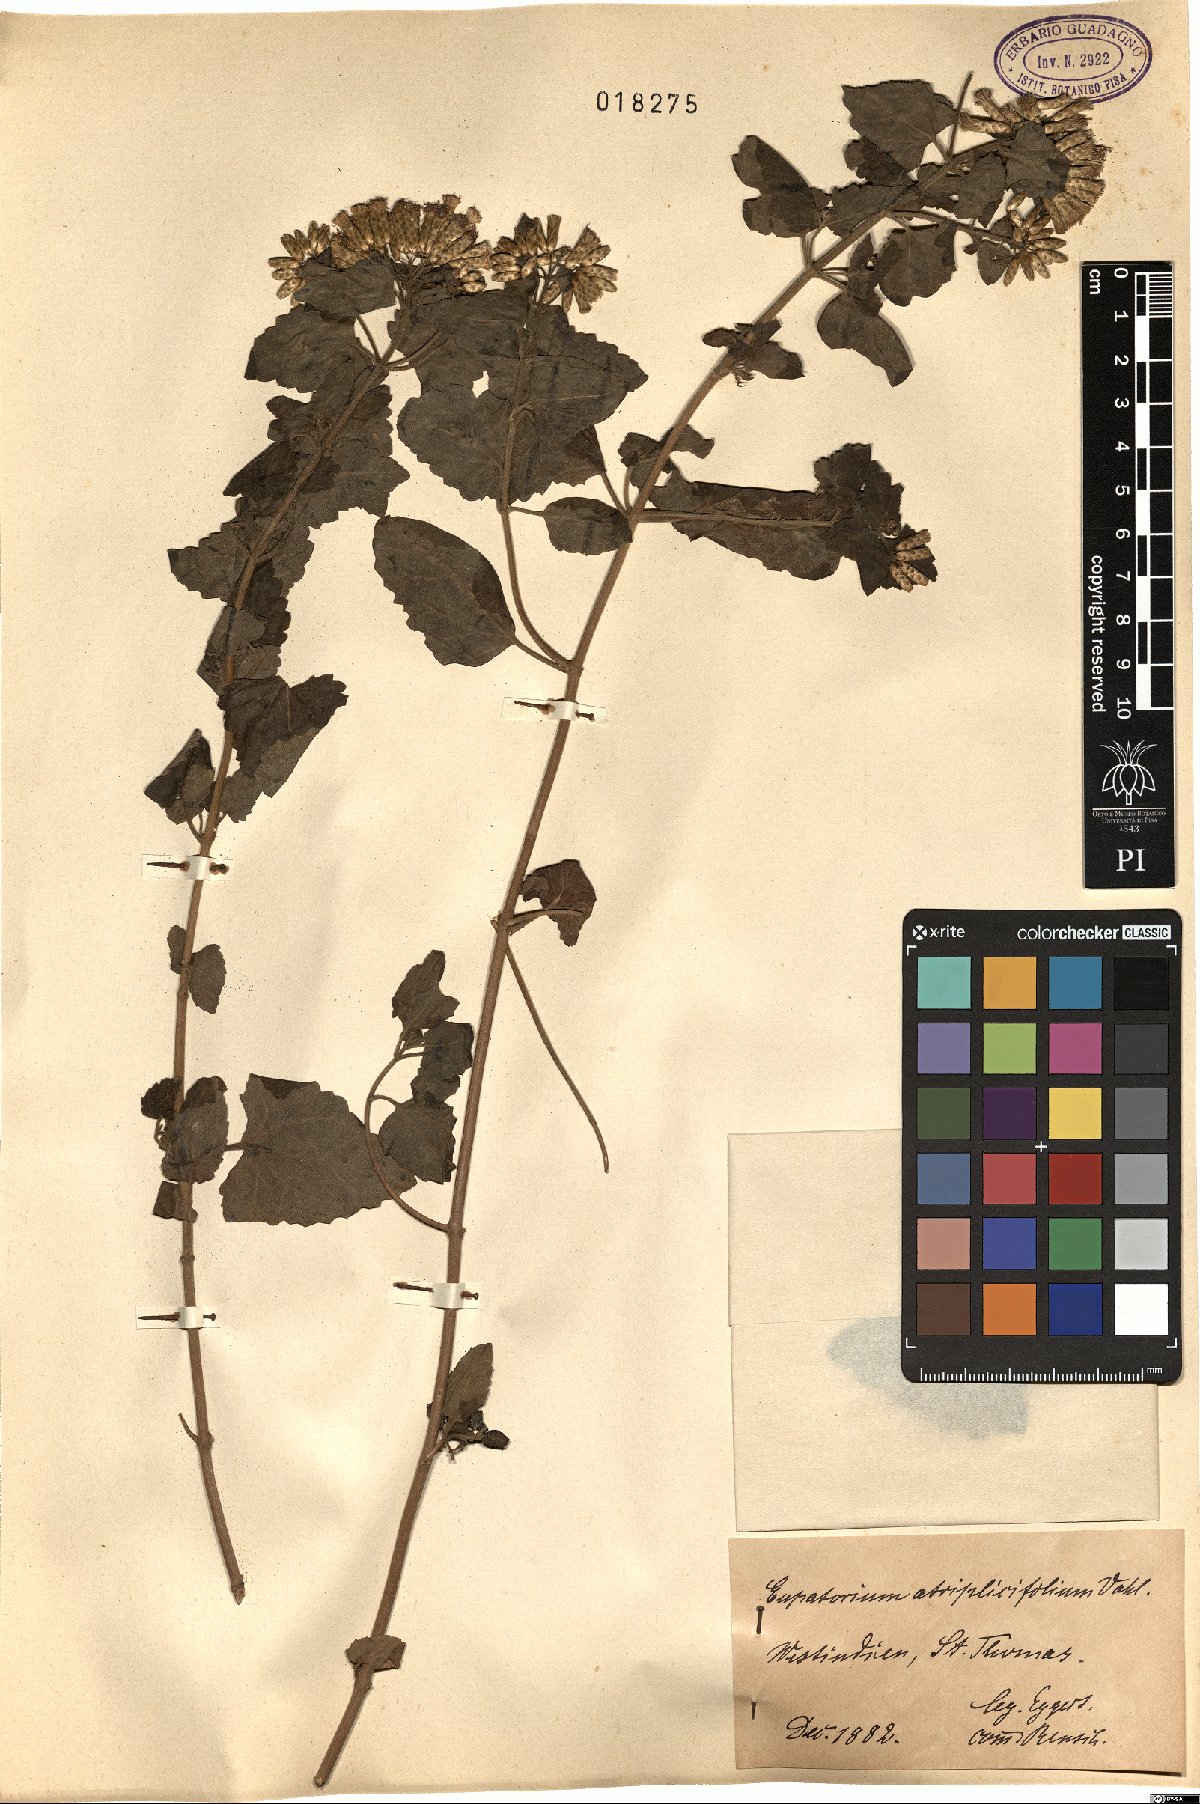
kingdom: Plantae
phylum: Tracheophyta
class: Magnoliopsida
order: Asterales
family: Asteraceae
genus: Chromolaena
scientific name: Chromolaena odorata
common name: Siamweed
